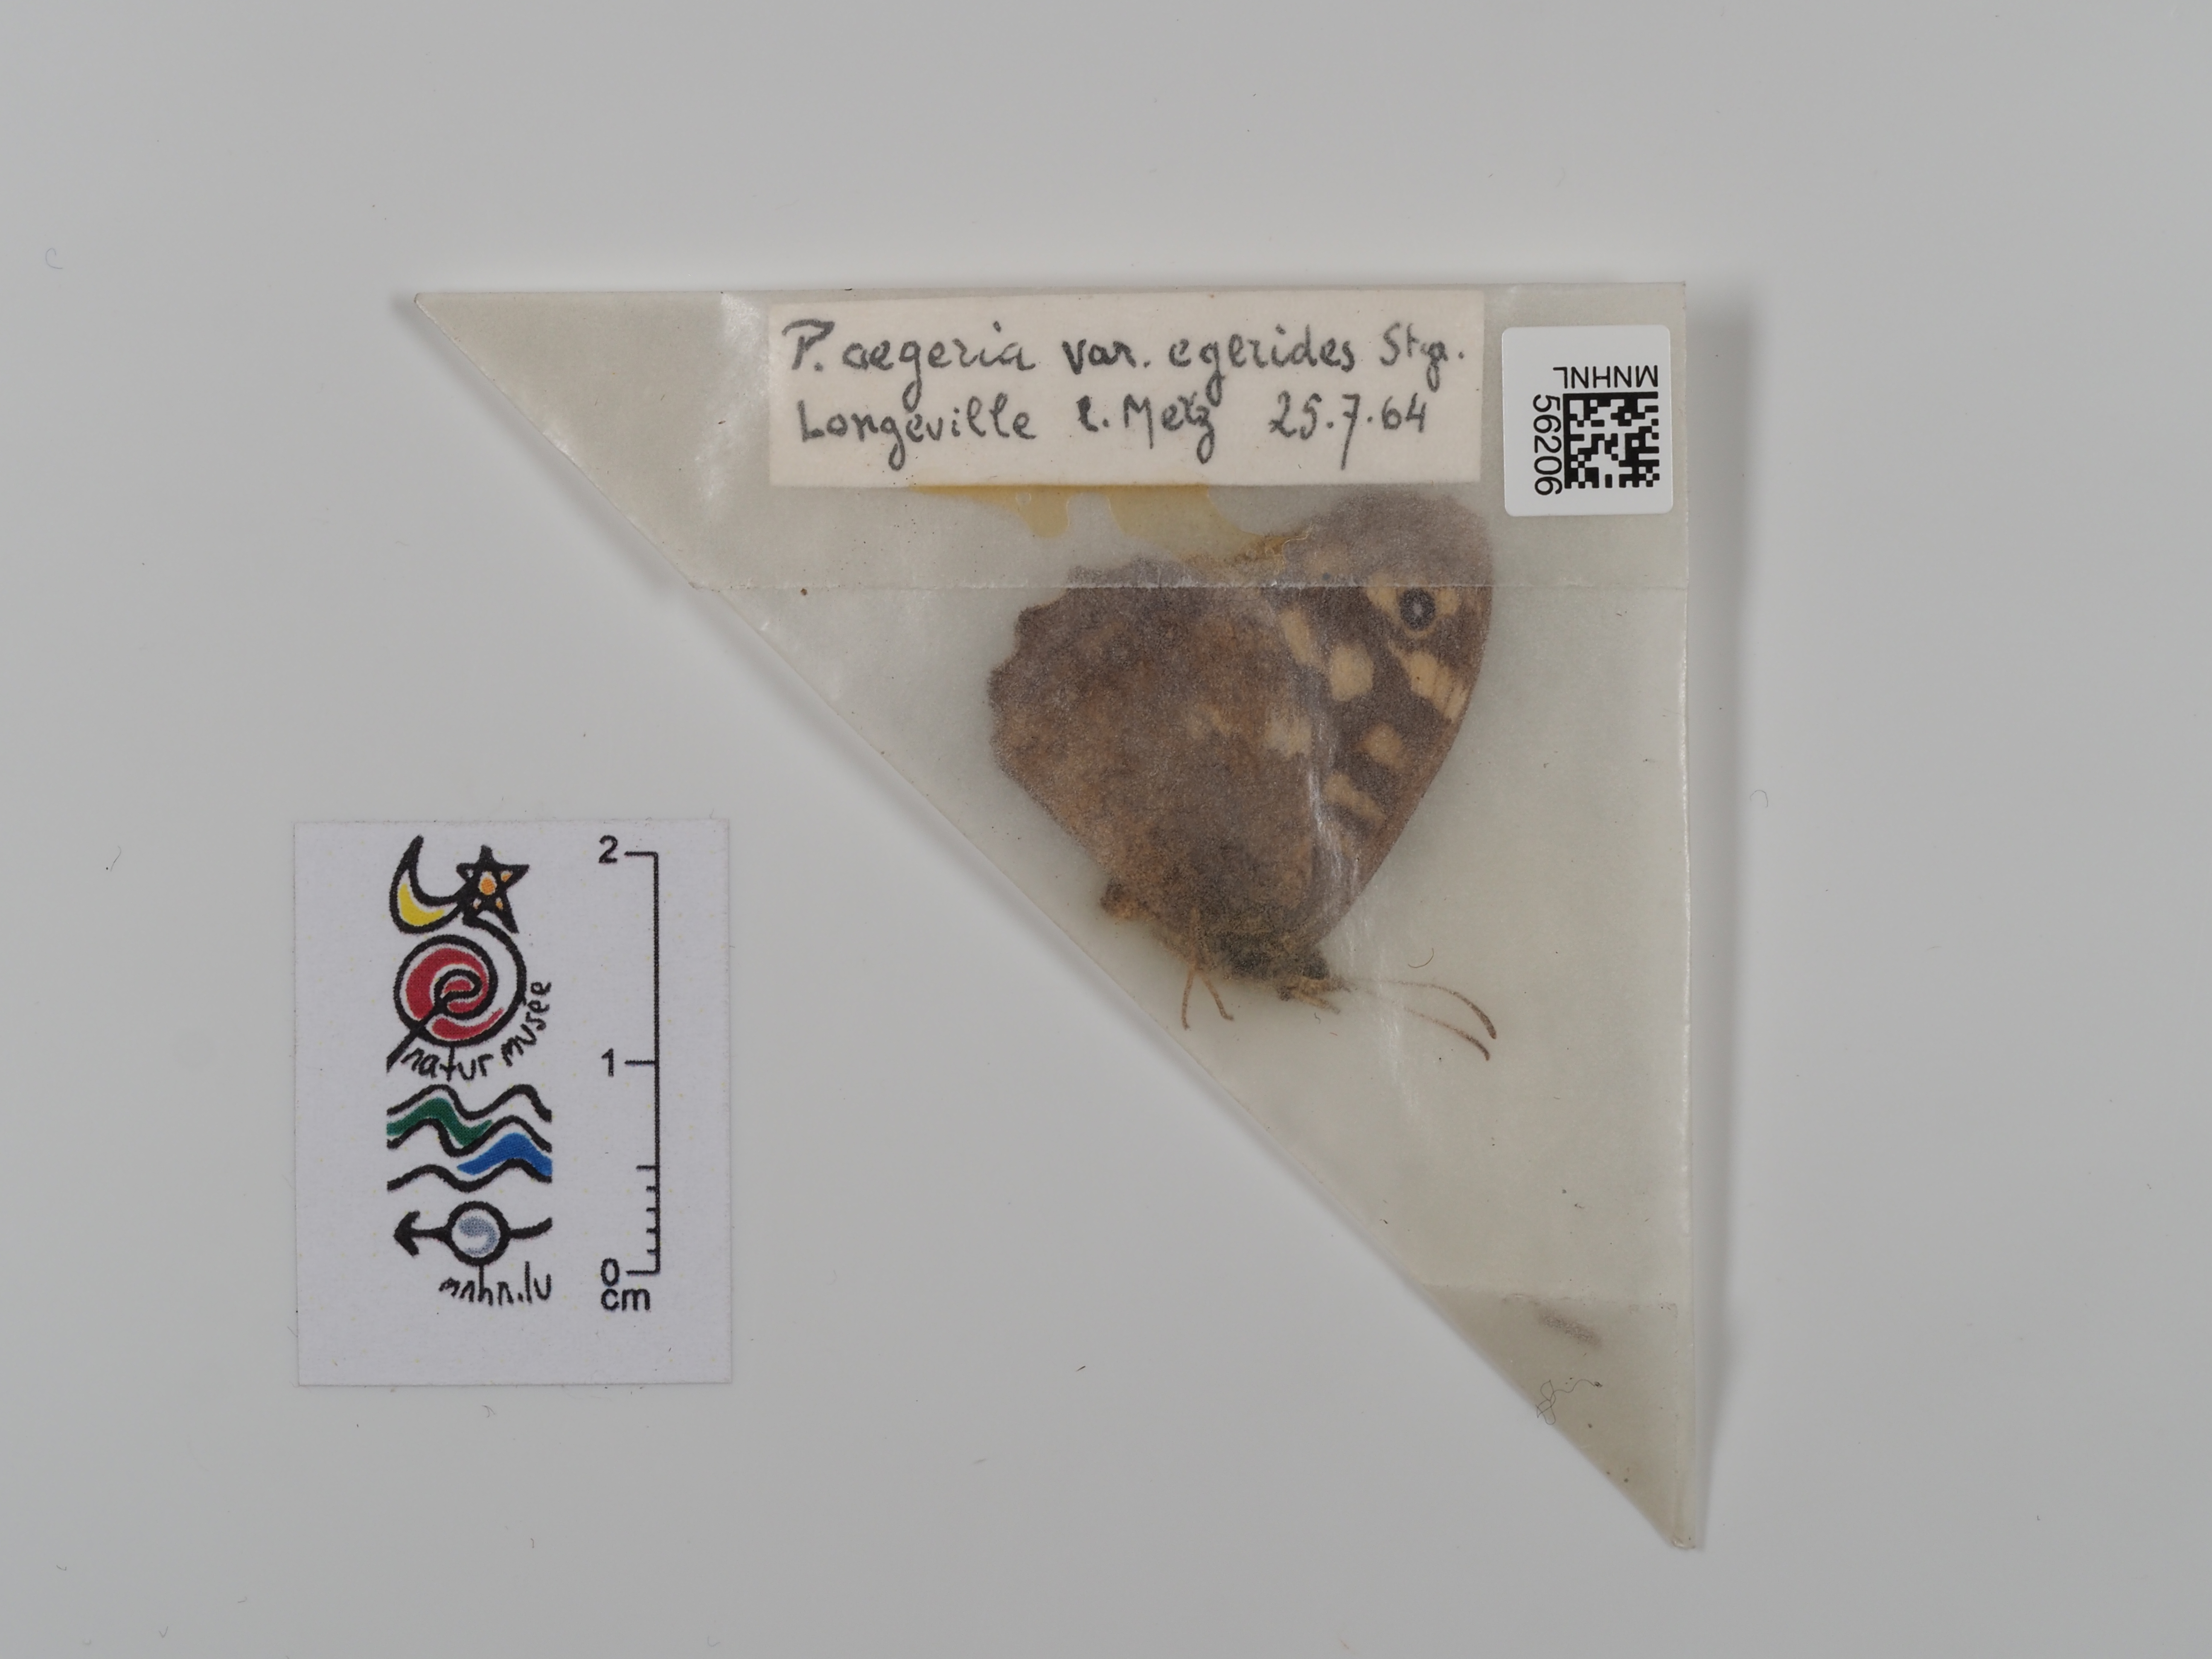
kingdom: Animalia
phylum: Arthropoda
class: Insecta
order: Lepidoptera
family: Nymphalidae
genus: Pararge
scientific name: Pararge aegeria
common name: Speckled wood
